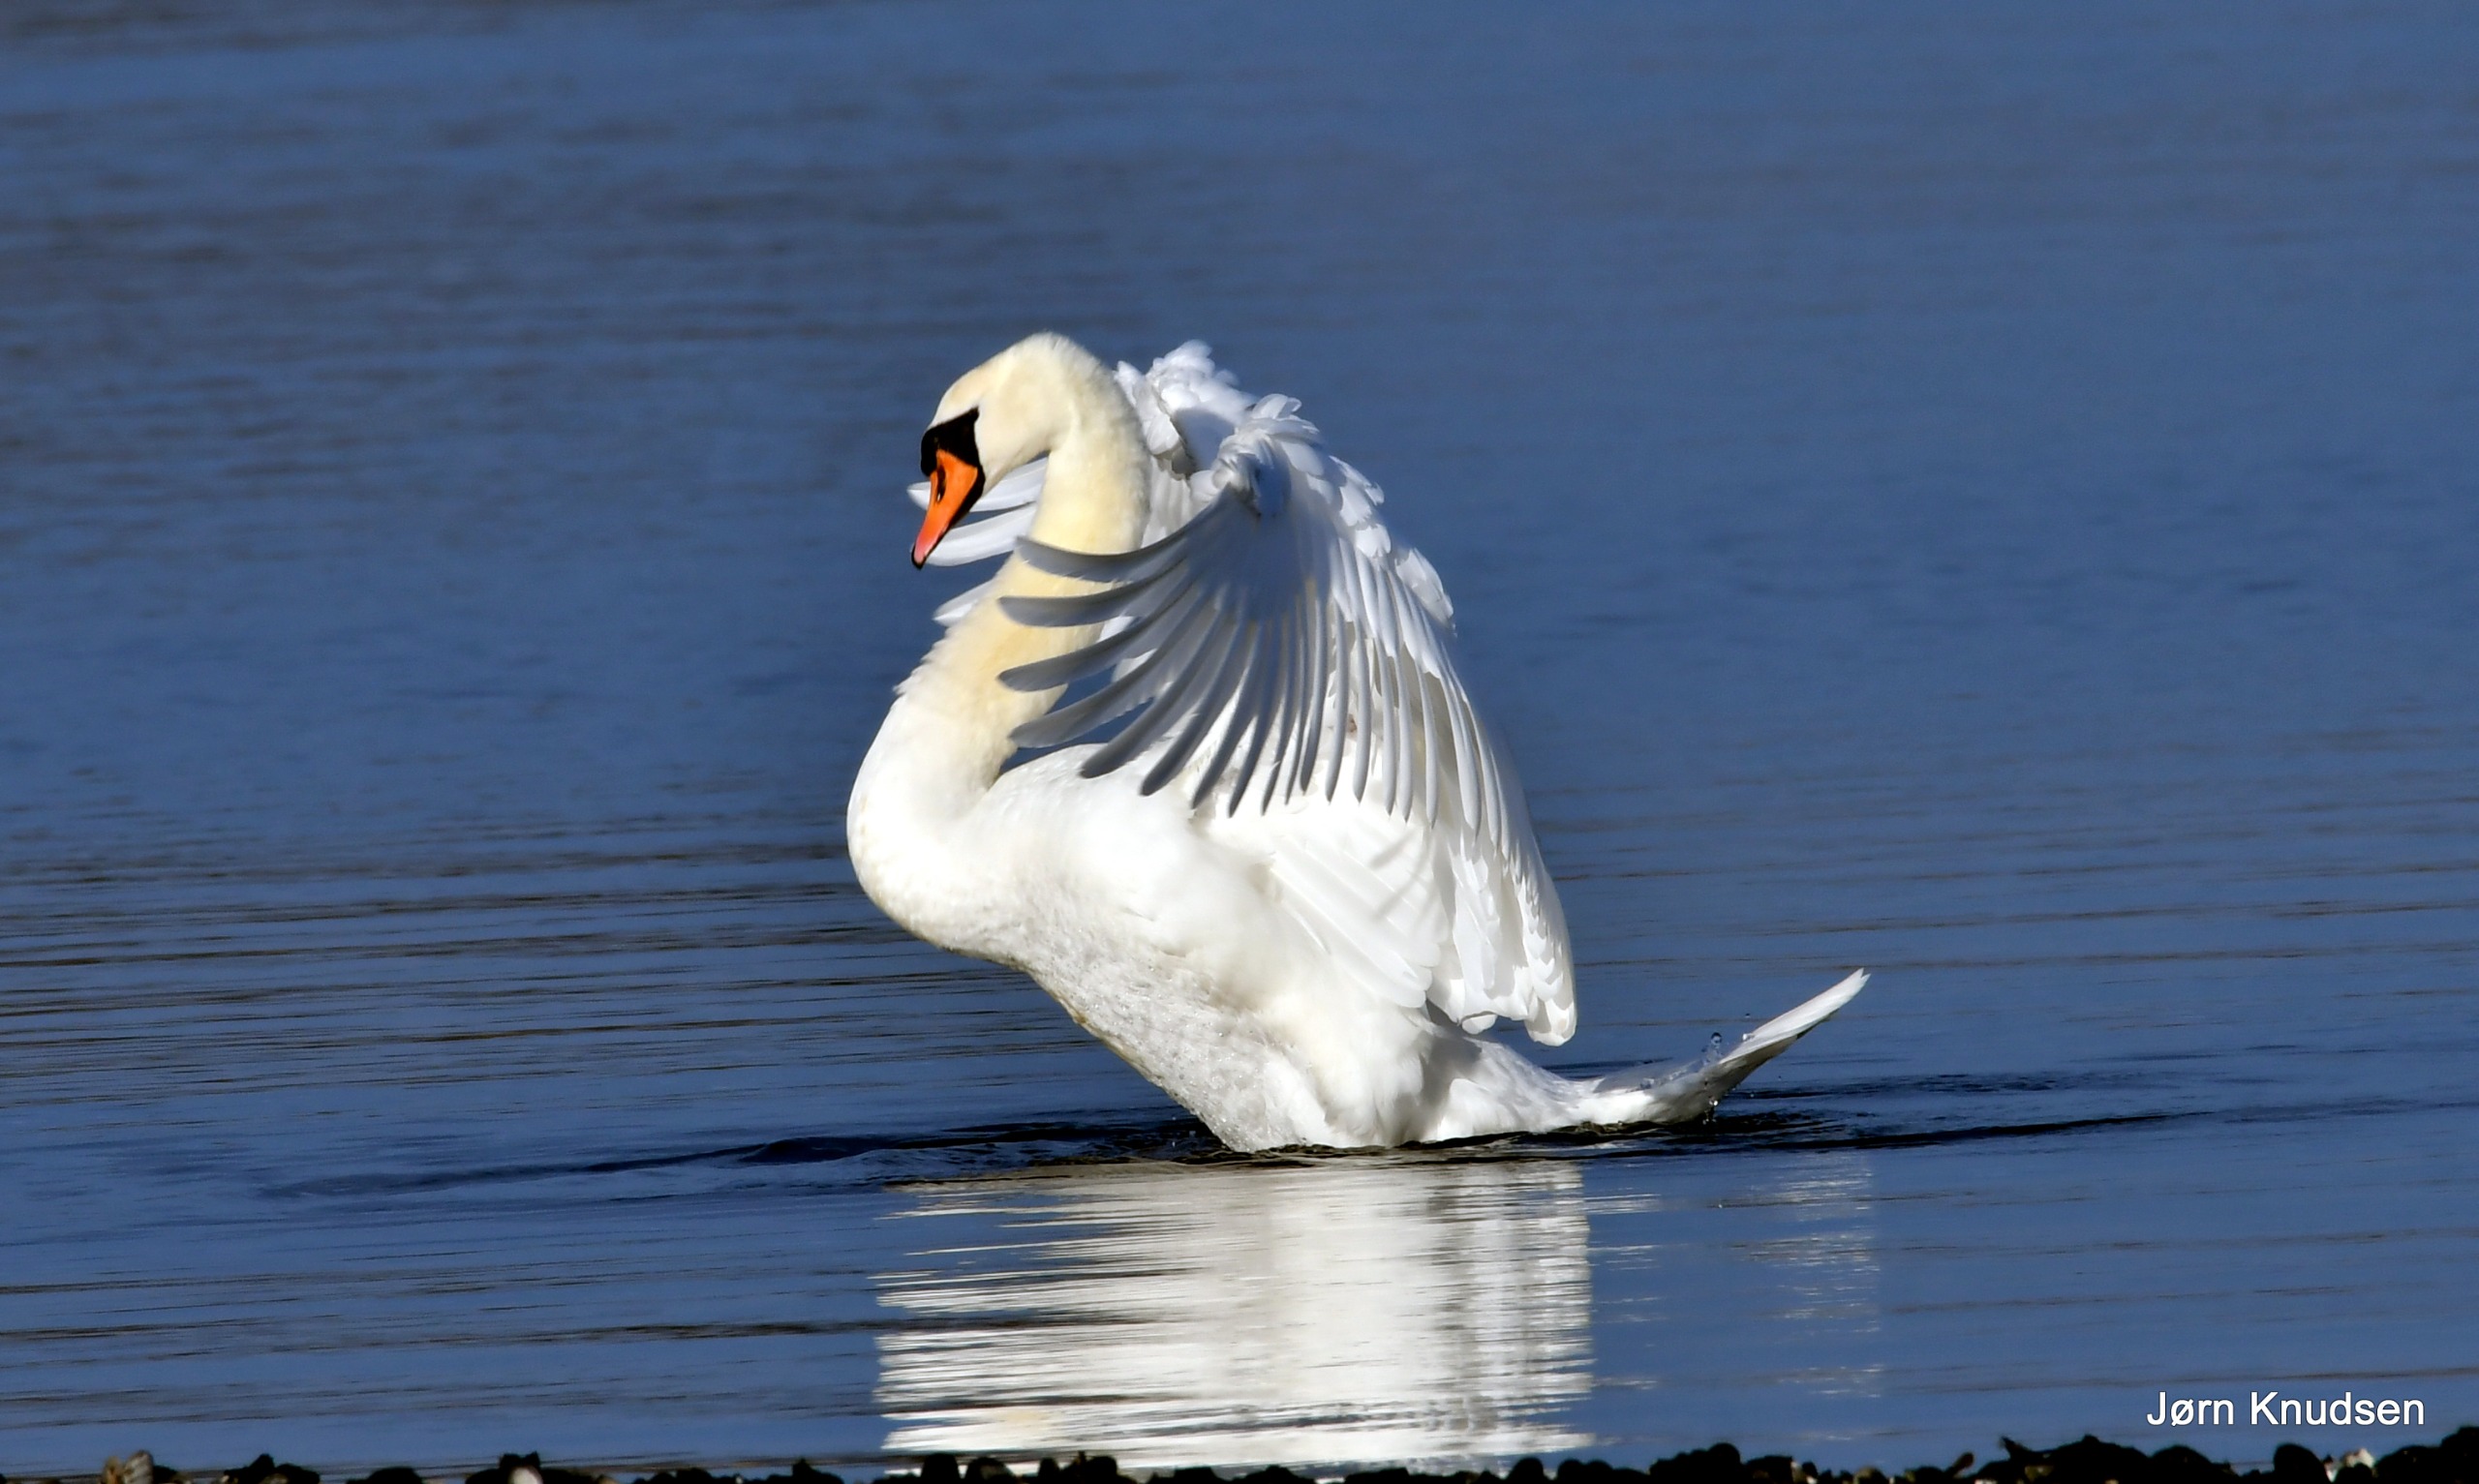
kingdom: Animalia
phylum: Chordata
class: Aves
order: Anseriformes
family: Anatidae
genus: Cygnus
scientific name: Cygnus olor
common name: Knopsvane
